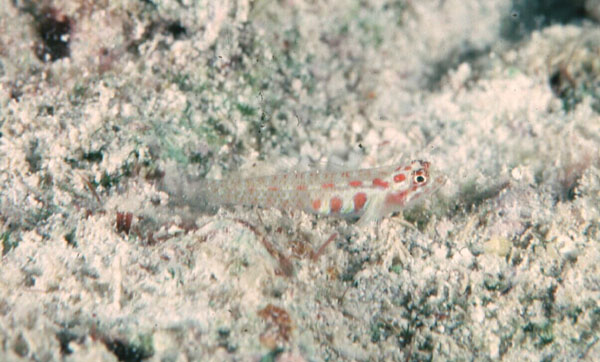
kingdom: Animalia
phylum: Chordata
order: Perciformes
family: Gobiidae
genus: Eviota
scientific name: Eviota guttata
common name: Green pygmy-goby
